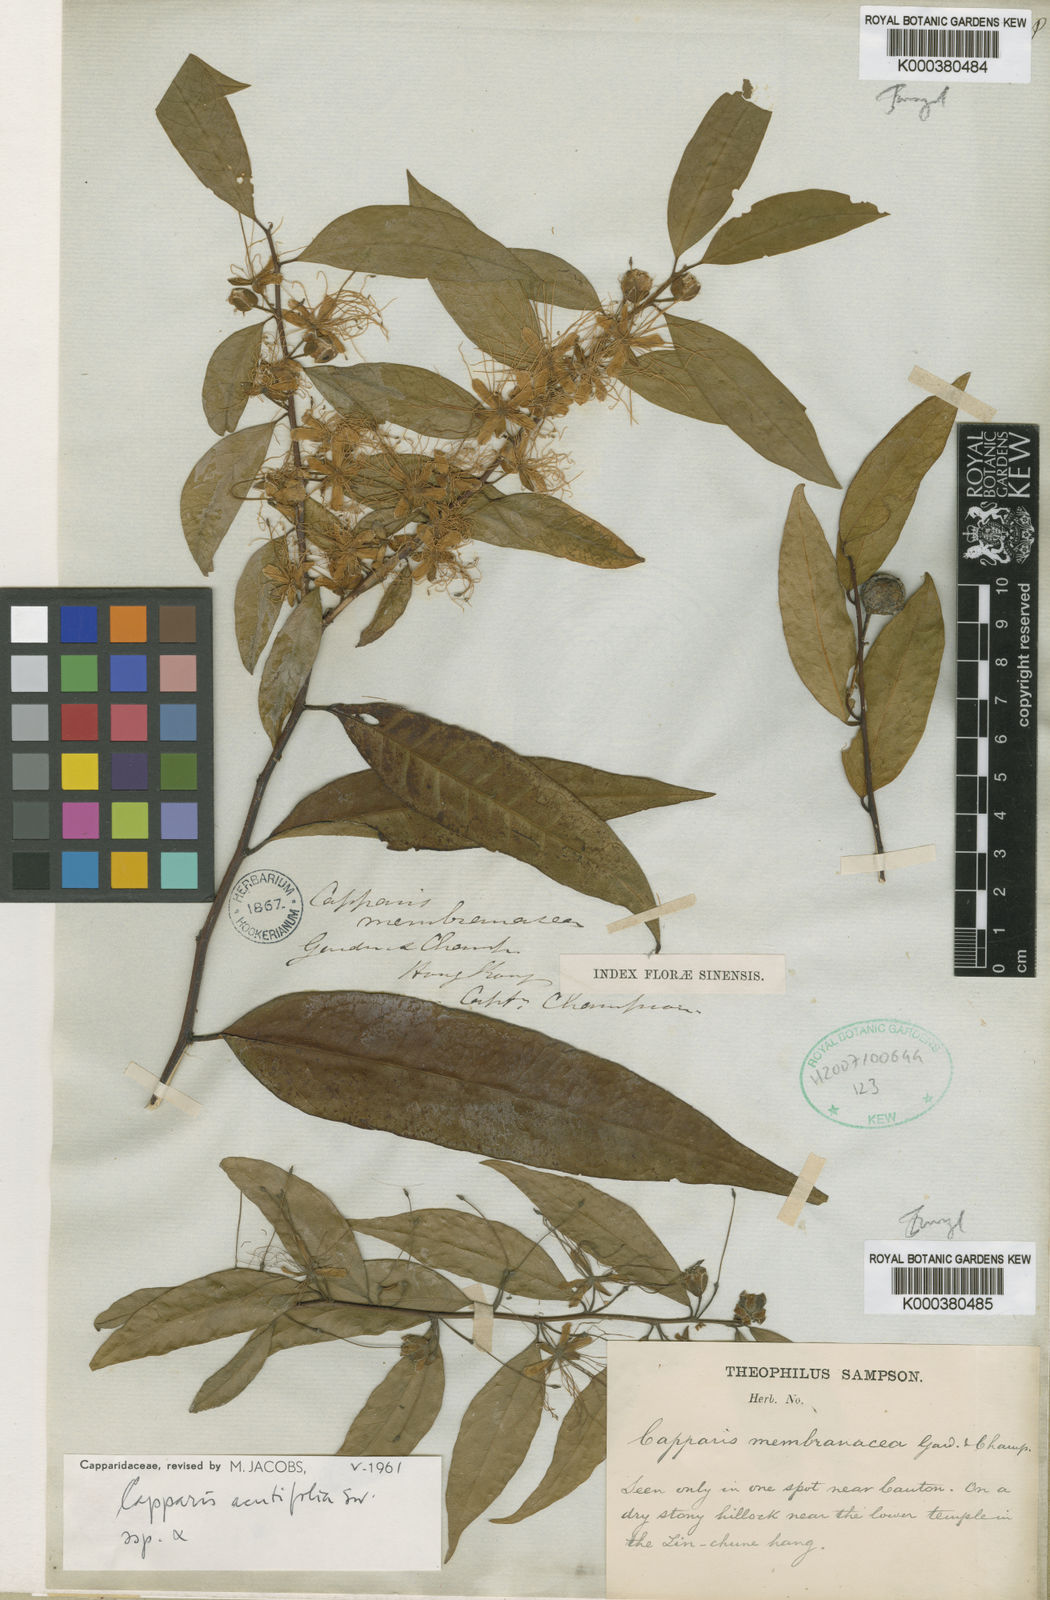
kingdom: Plantae
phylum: Tracheophyta
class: Magnoliopsida
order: Brassicales
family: Capparaceae
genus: Capparis
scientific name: Capparis sunbisiniana
